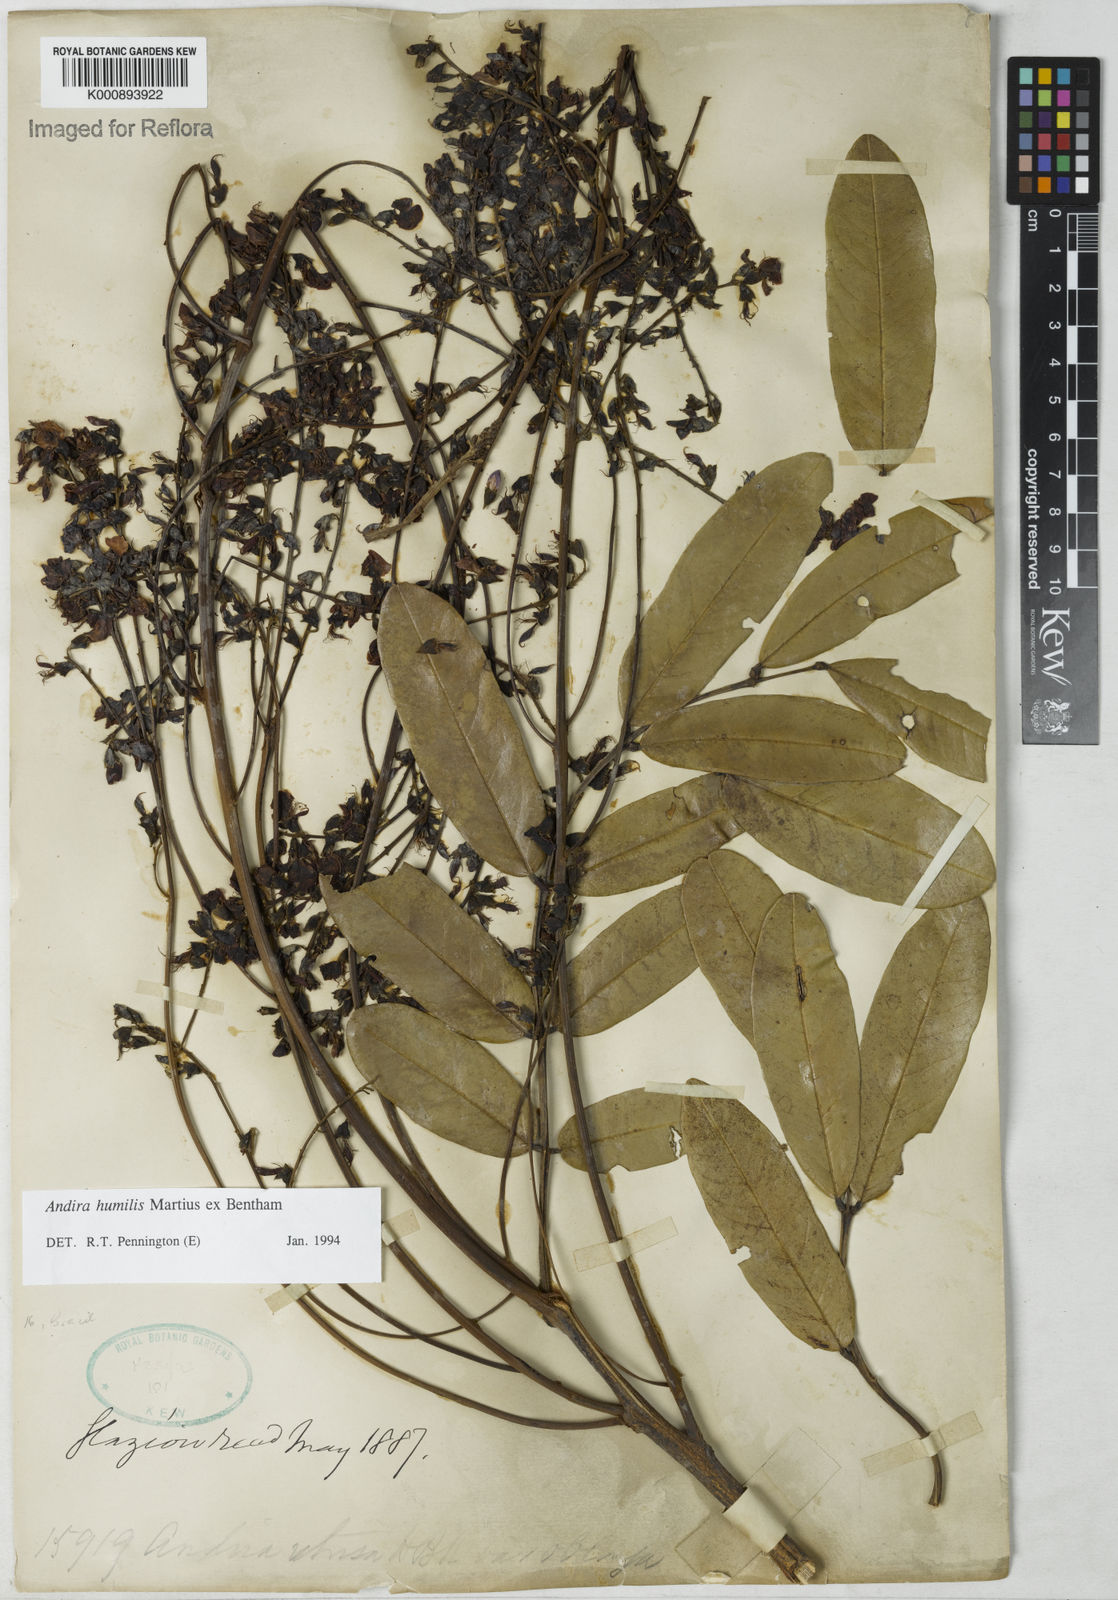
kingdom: Plantae
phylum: Tracheophyta
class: Magnoliopsida
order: Fabales
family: Fabaceae
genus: Andira
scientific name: Andira humilis
